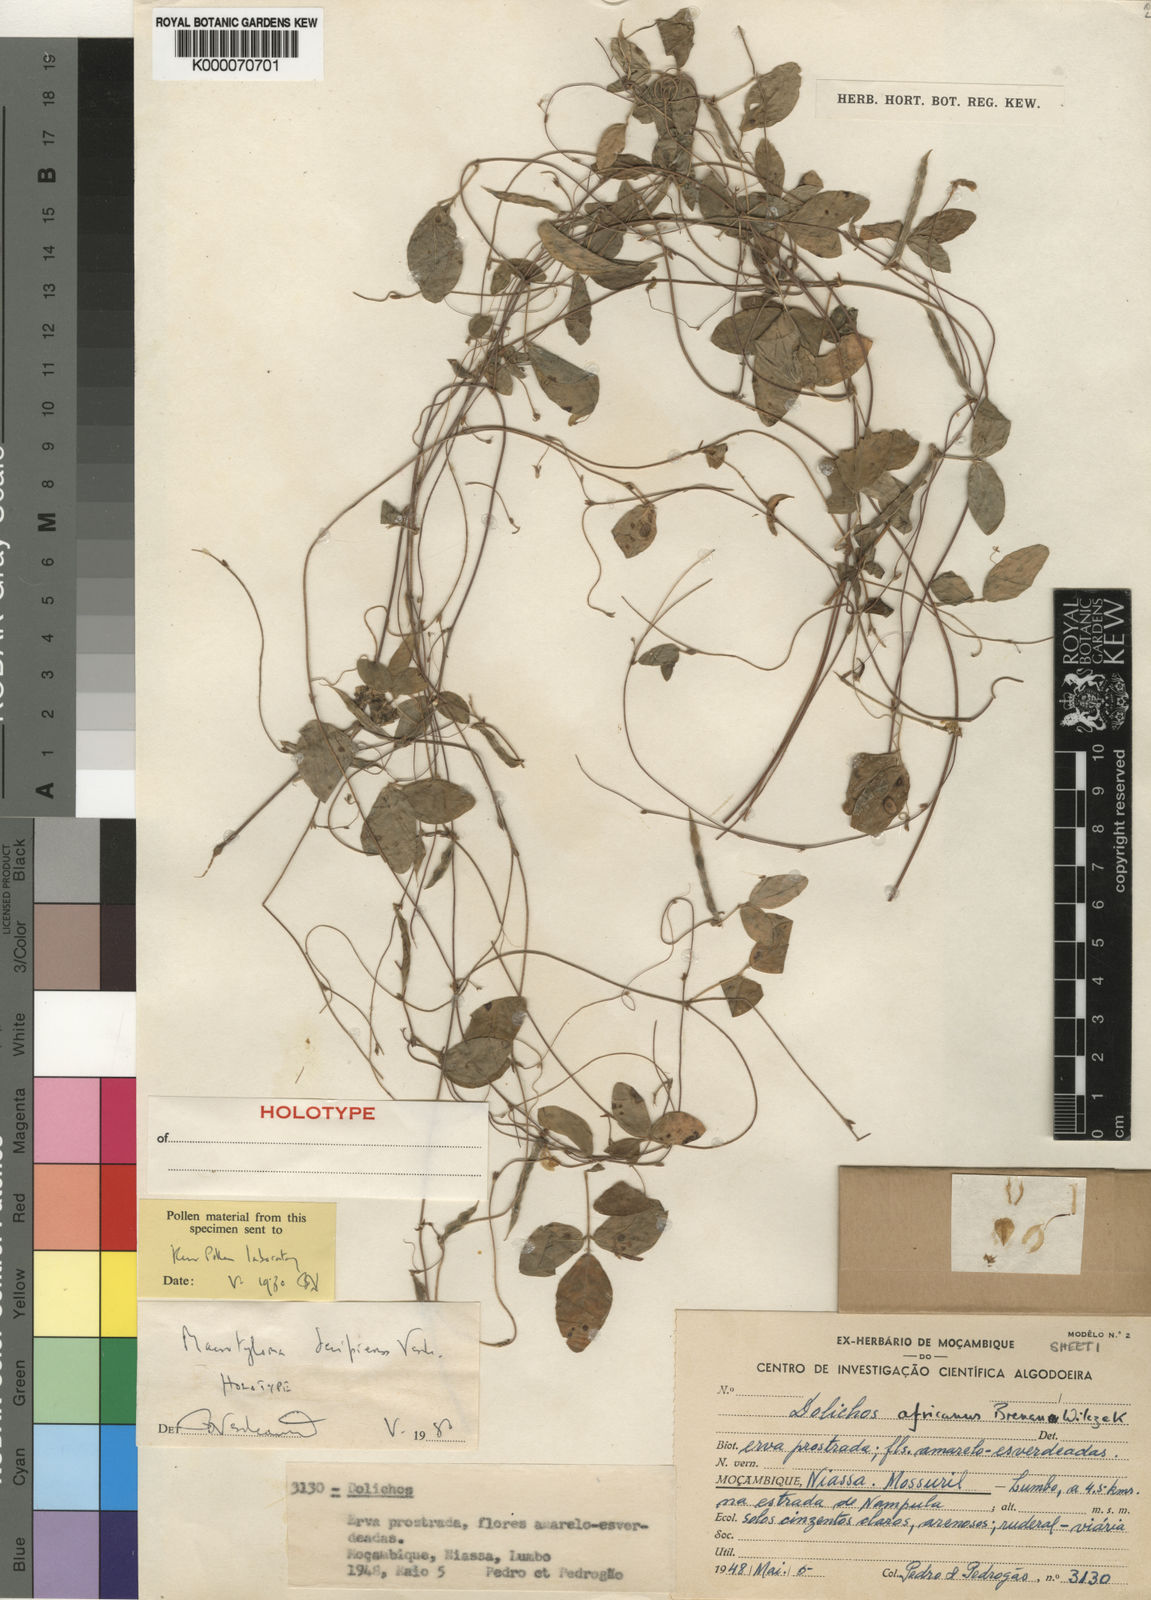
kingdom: Plantae
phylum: Tracheophyta
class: Magnoliopsida
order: Fabales
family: Fabaceae
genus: Macrotyloma
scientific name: Macrotyloma decipiens
